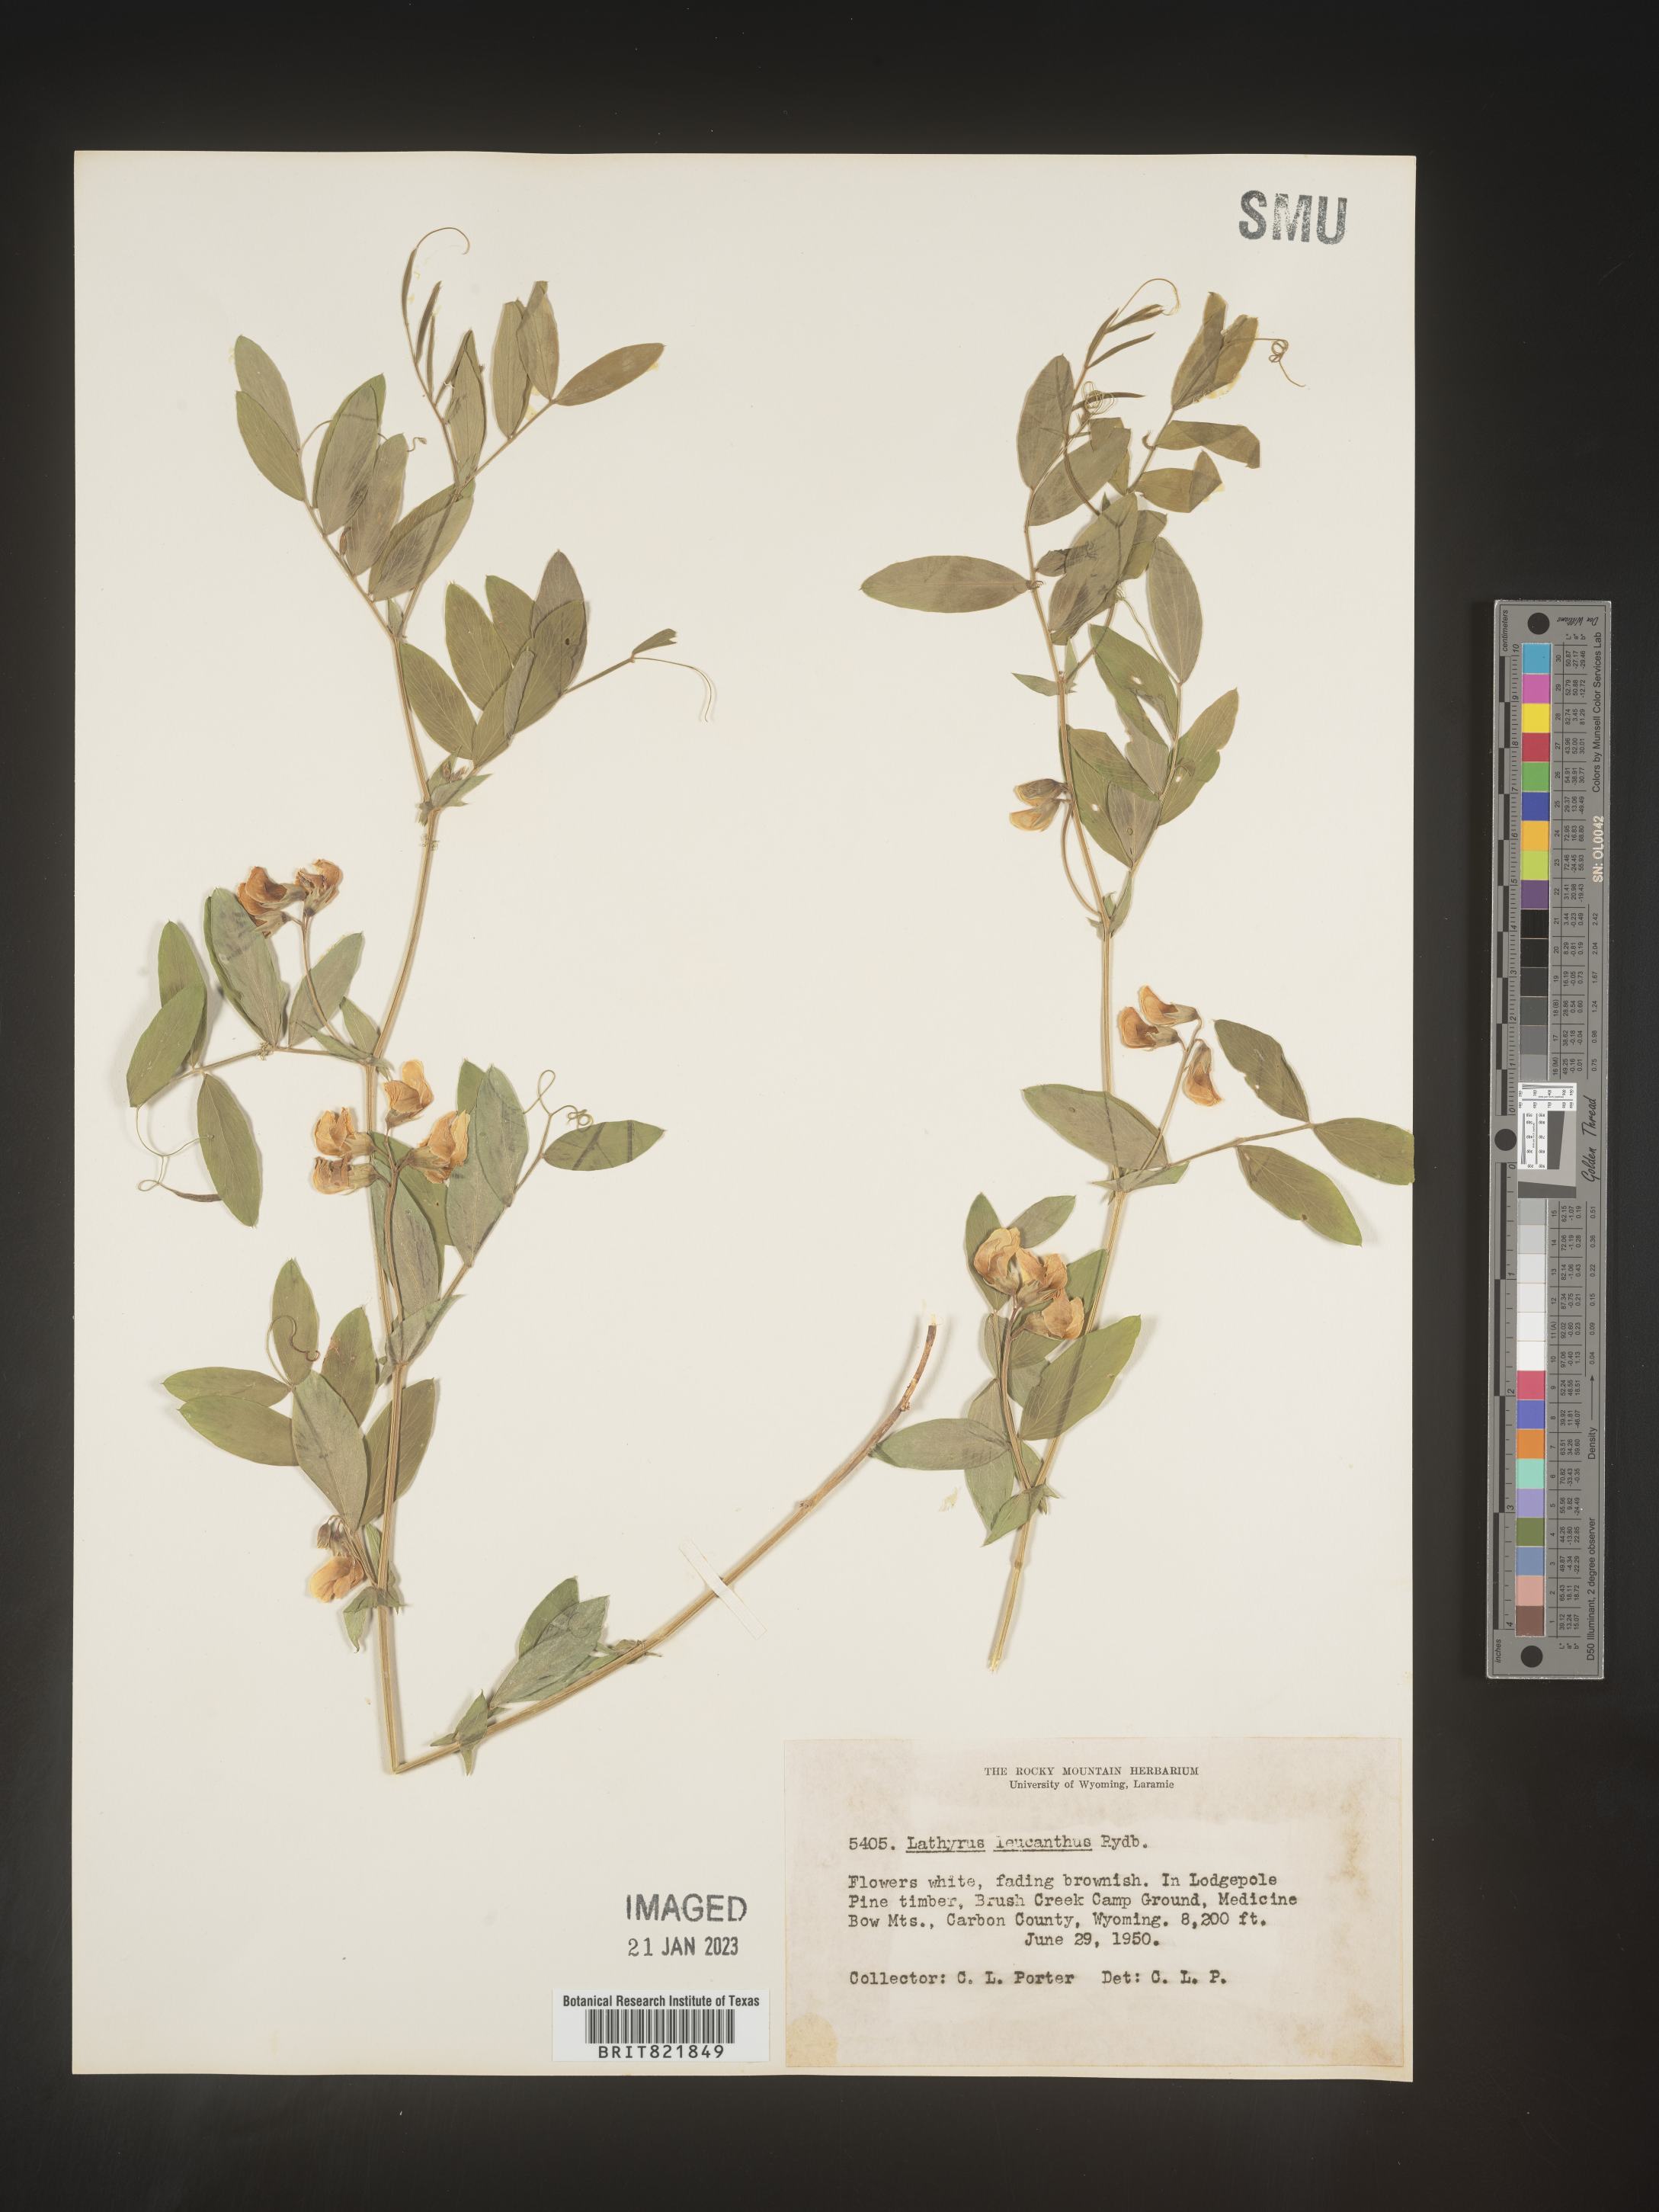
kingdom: Plantae
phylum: Tracheophyta
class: Magnoliopsida
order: Fabales
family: Fabaceae
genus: Lathyrus
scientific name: Lathyrus
